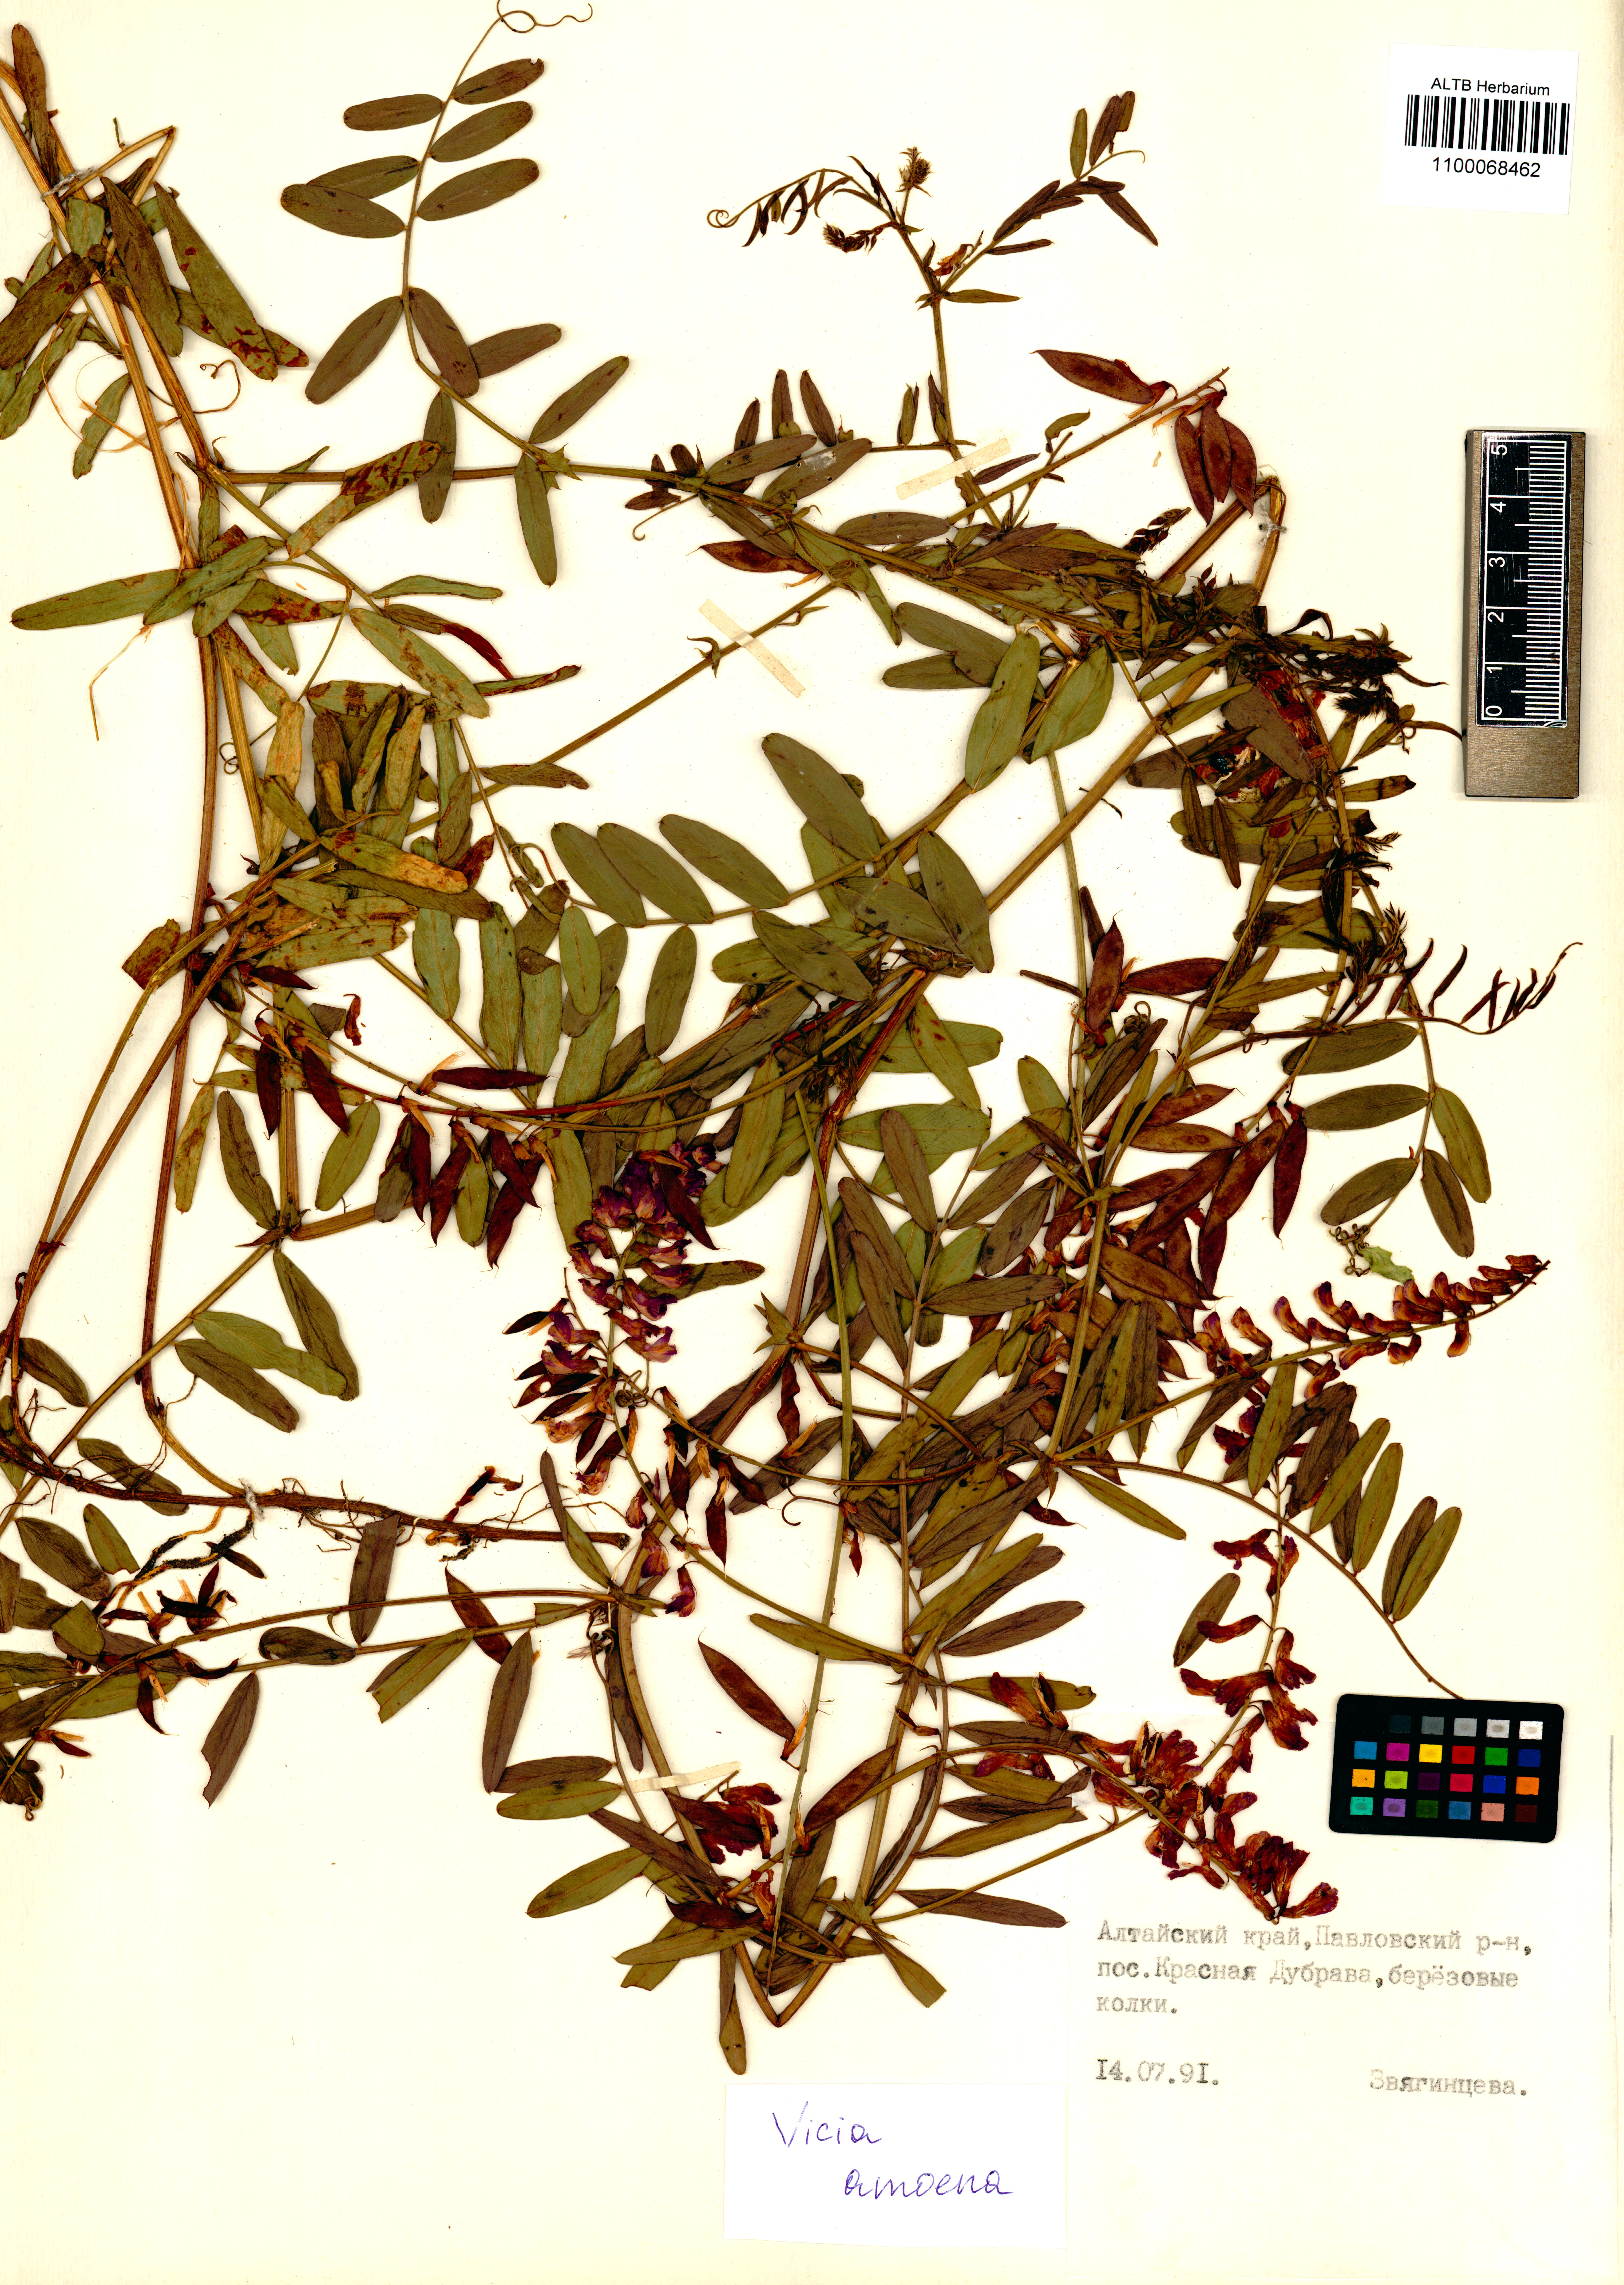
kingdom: Plantae
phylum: Tracheophyta
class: Magnoliopsida
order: Fabales
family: Fabaceae
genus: Vicia
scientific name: Vicia amoena
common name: Cheder ebs
